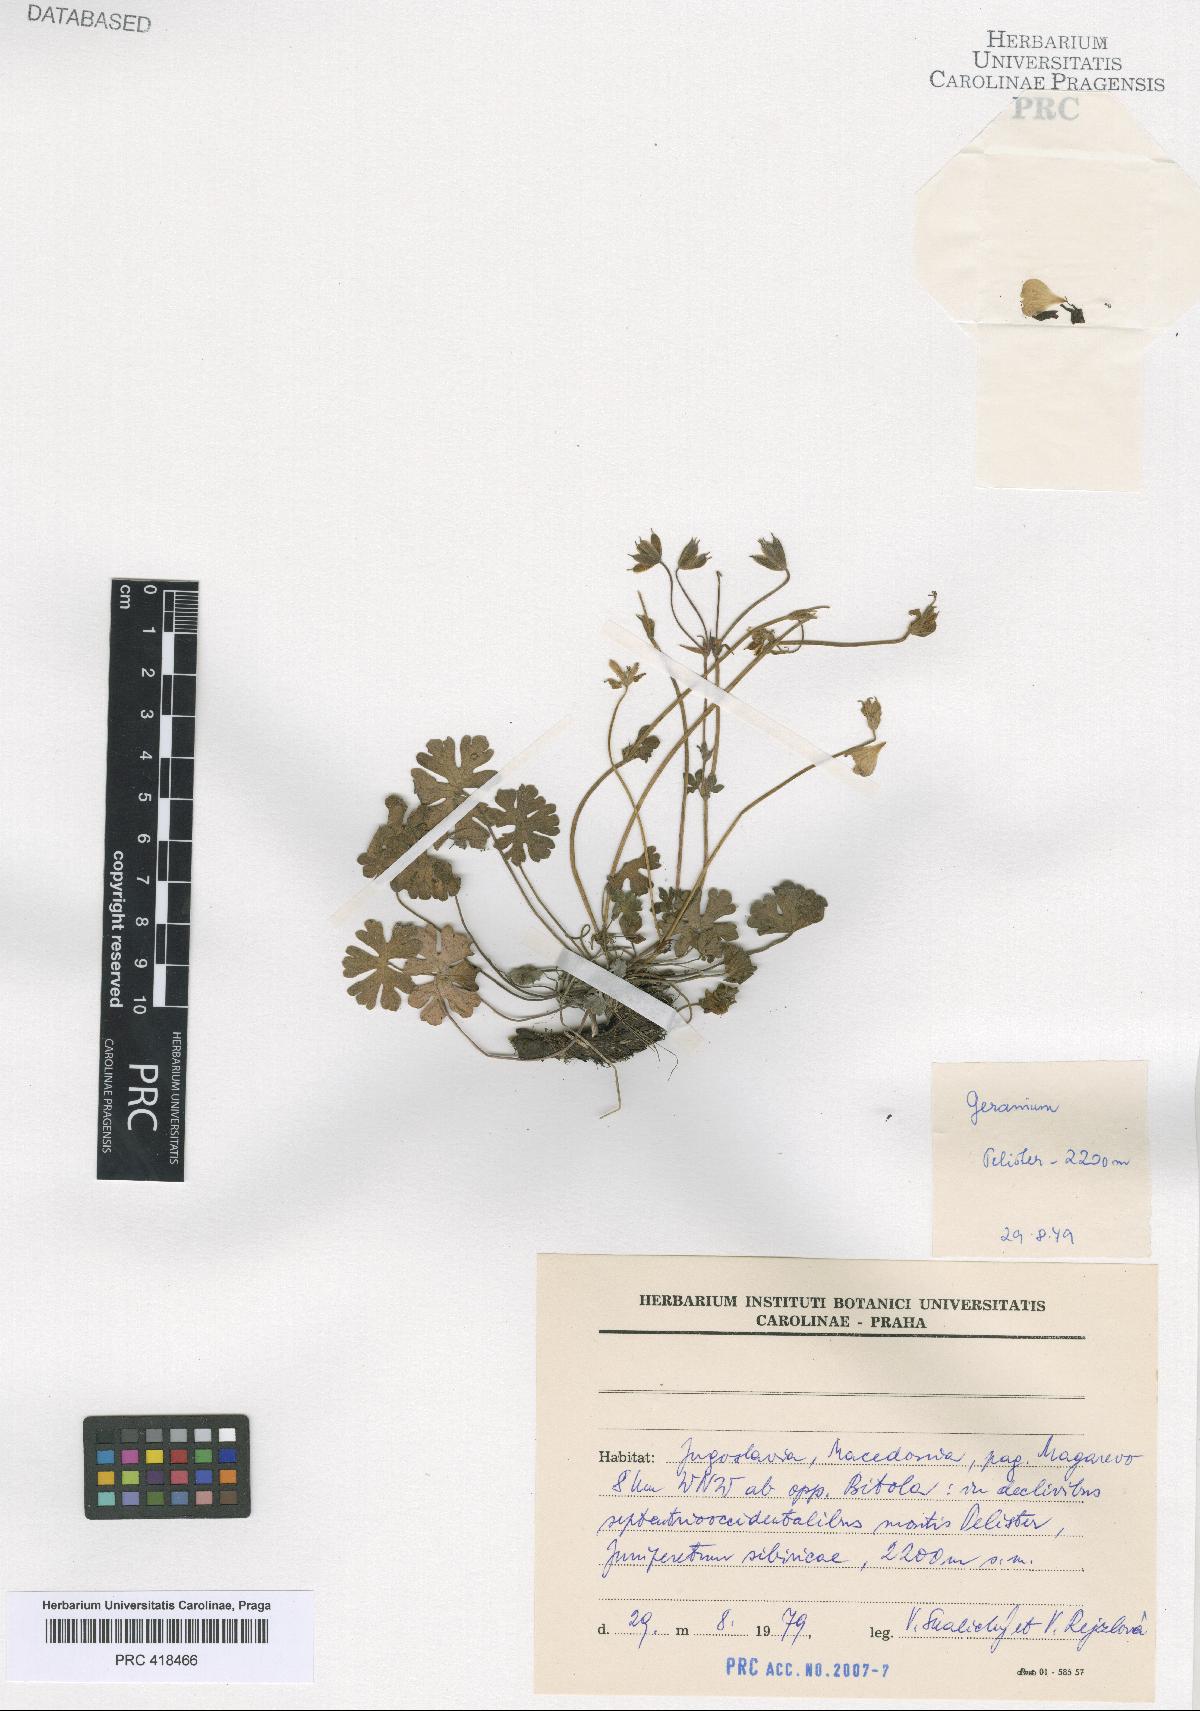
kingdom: Plantae
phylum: Tracheophyta
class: Magnoliopsida
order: Geraniales
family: Geraniaceae
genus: Geranium
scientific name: Geranium subcaulescens
